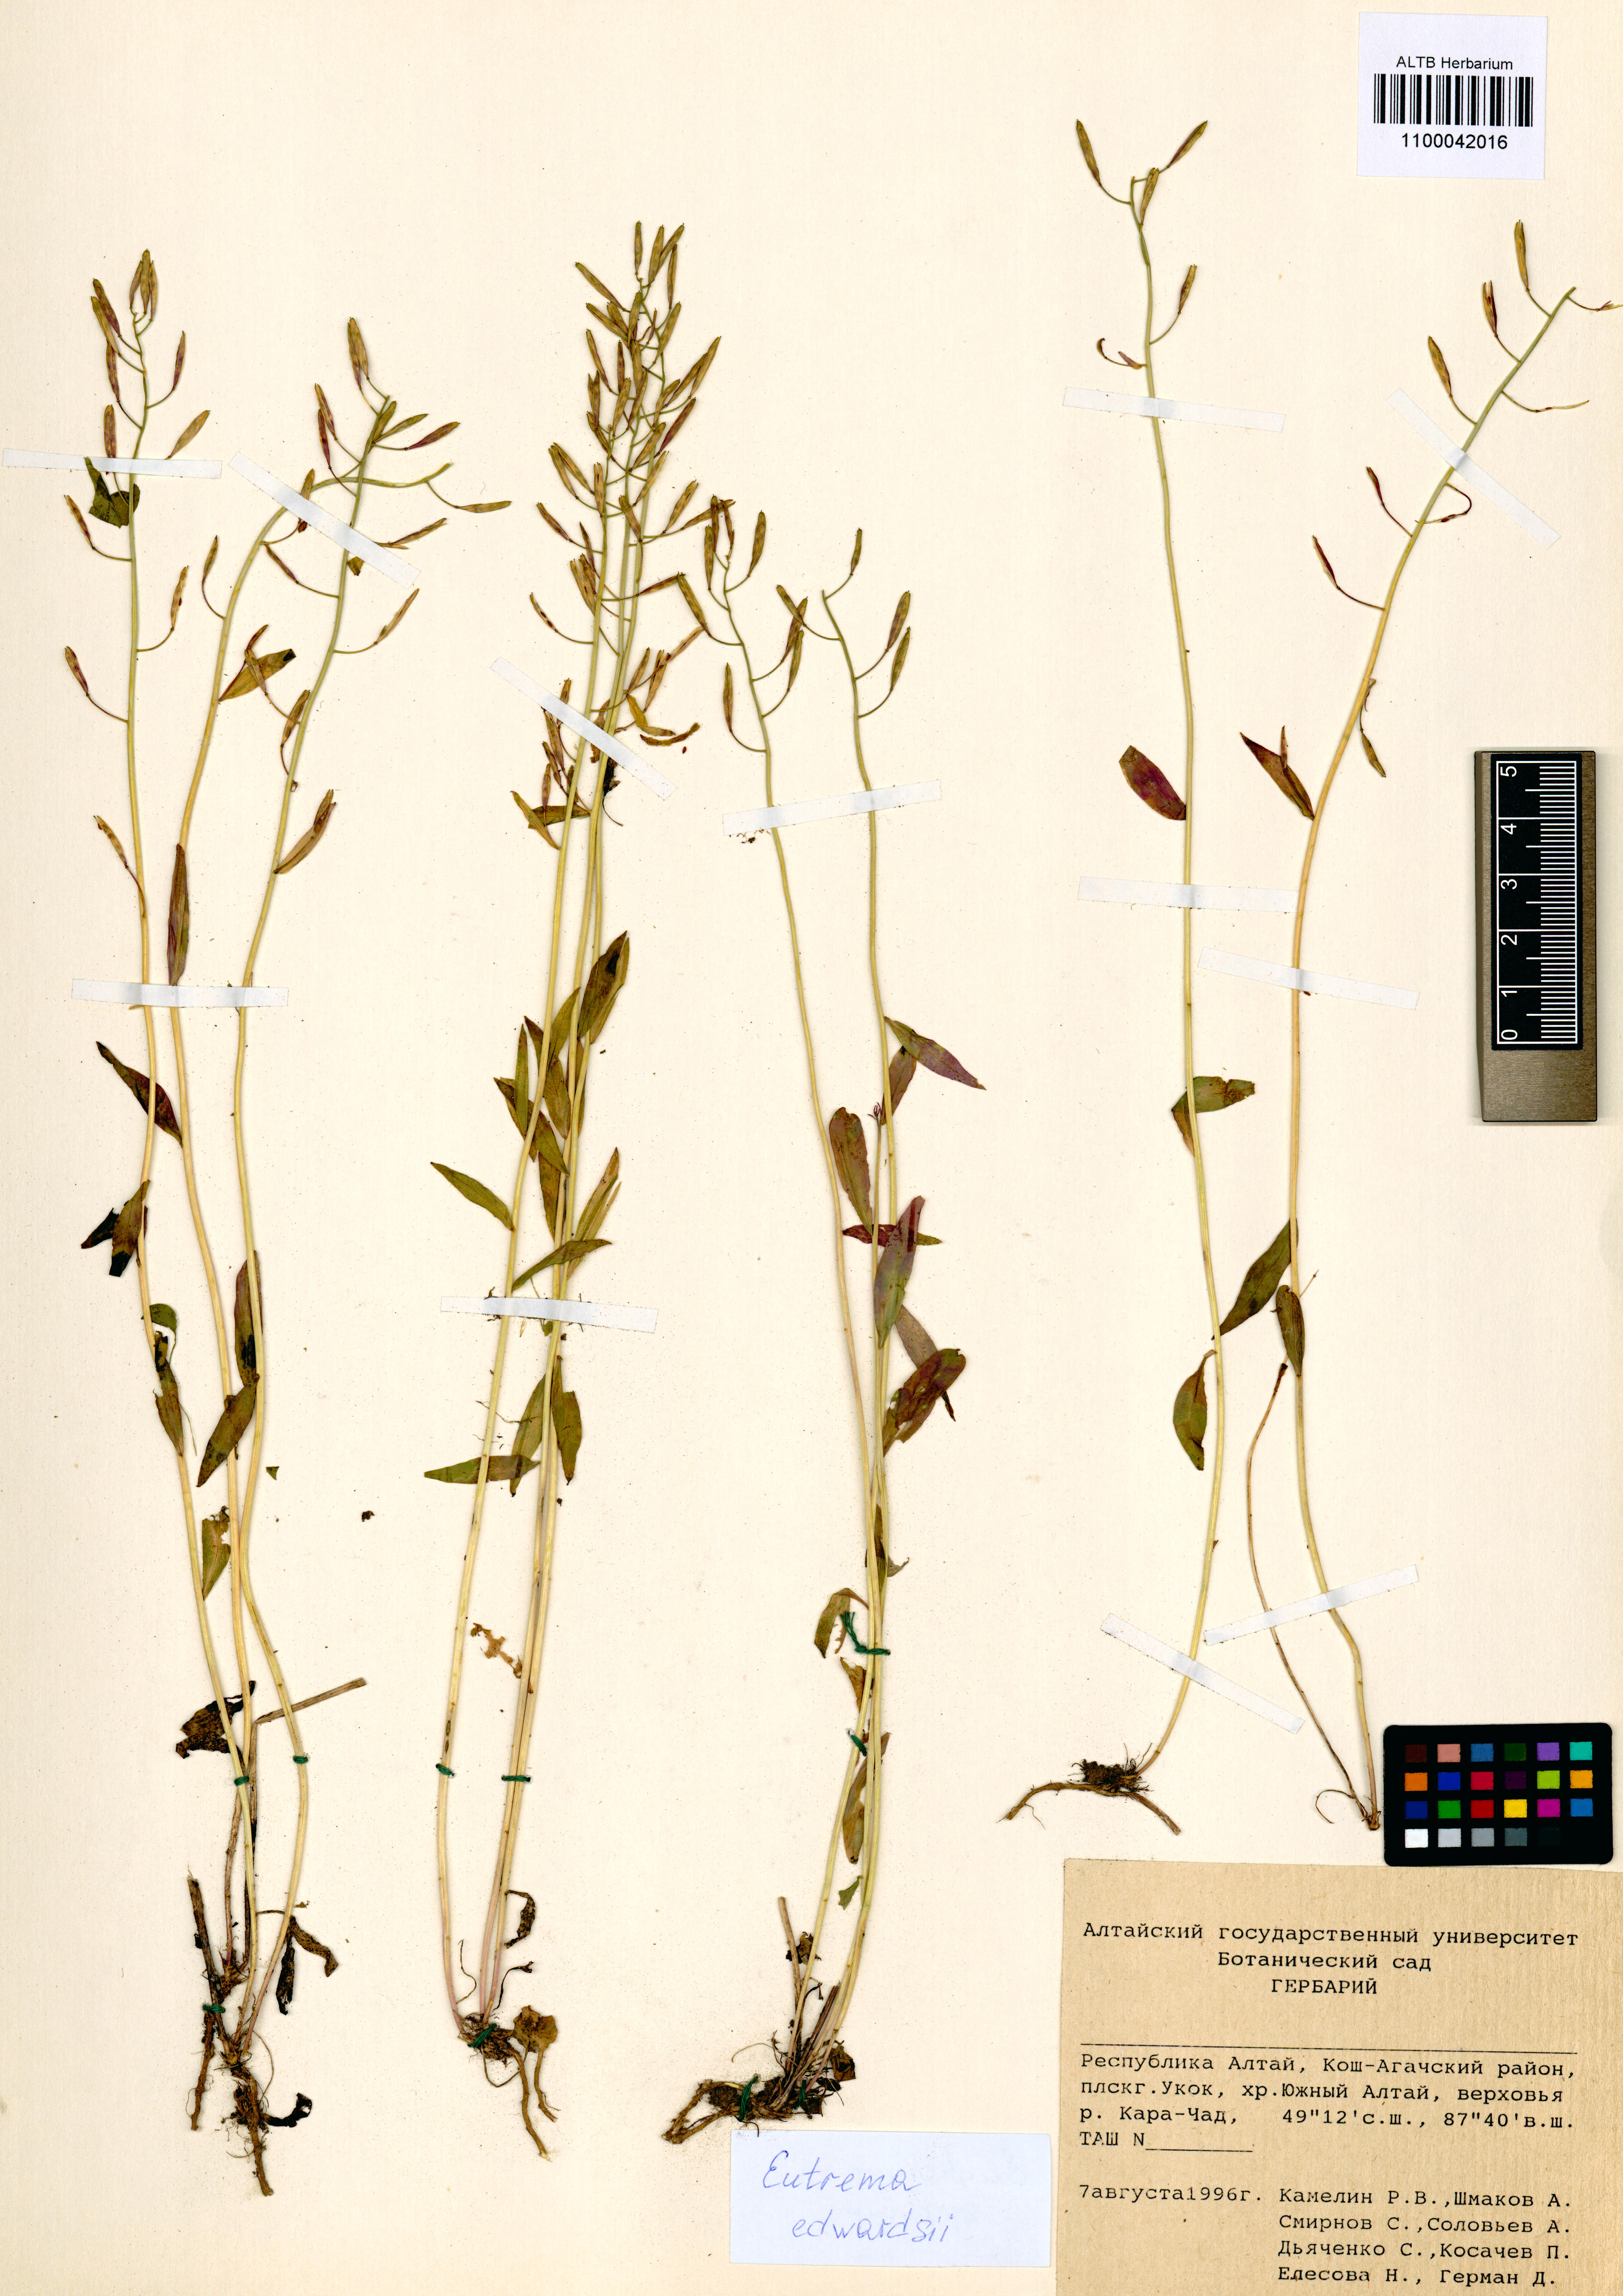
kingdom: Plantae
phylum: Tracheophyta
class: Magnoliopsida
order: Brassicales
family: Brassicaceae
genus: Eutrema
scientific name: Eutrema edwardsii
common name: Penland alpine fen mustard
